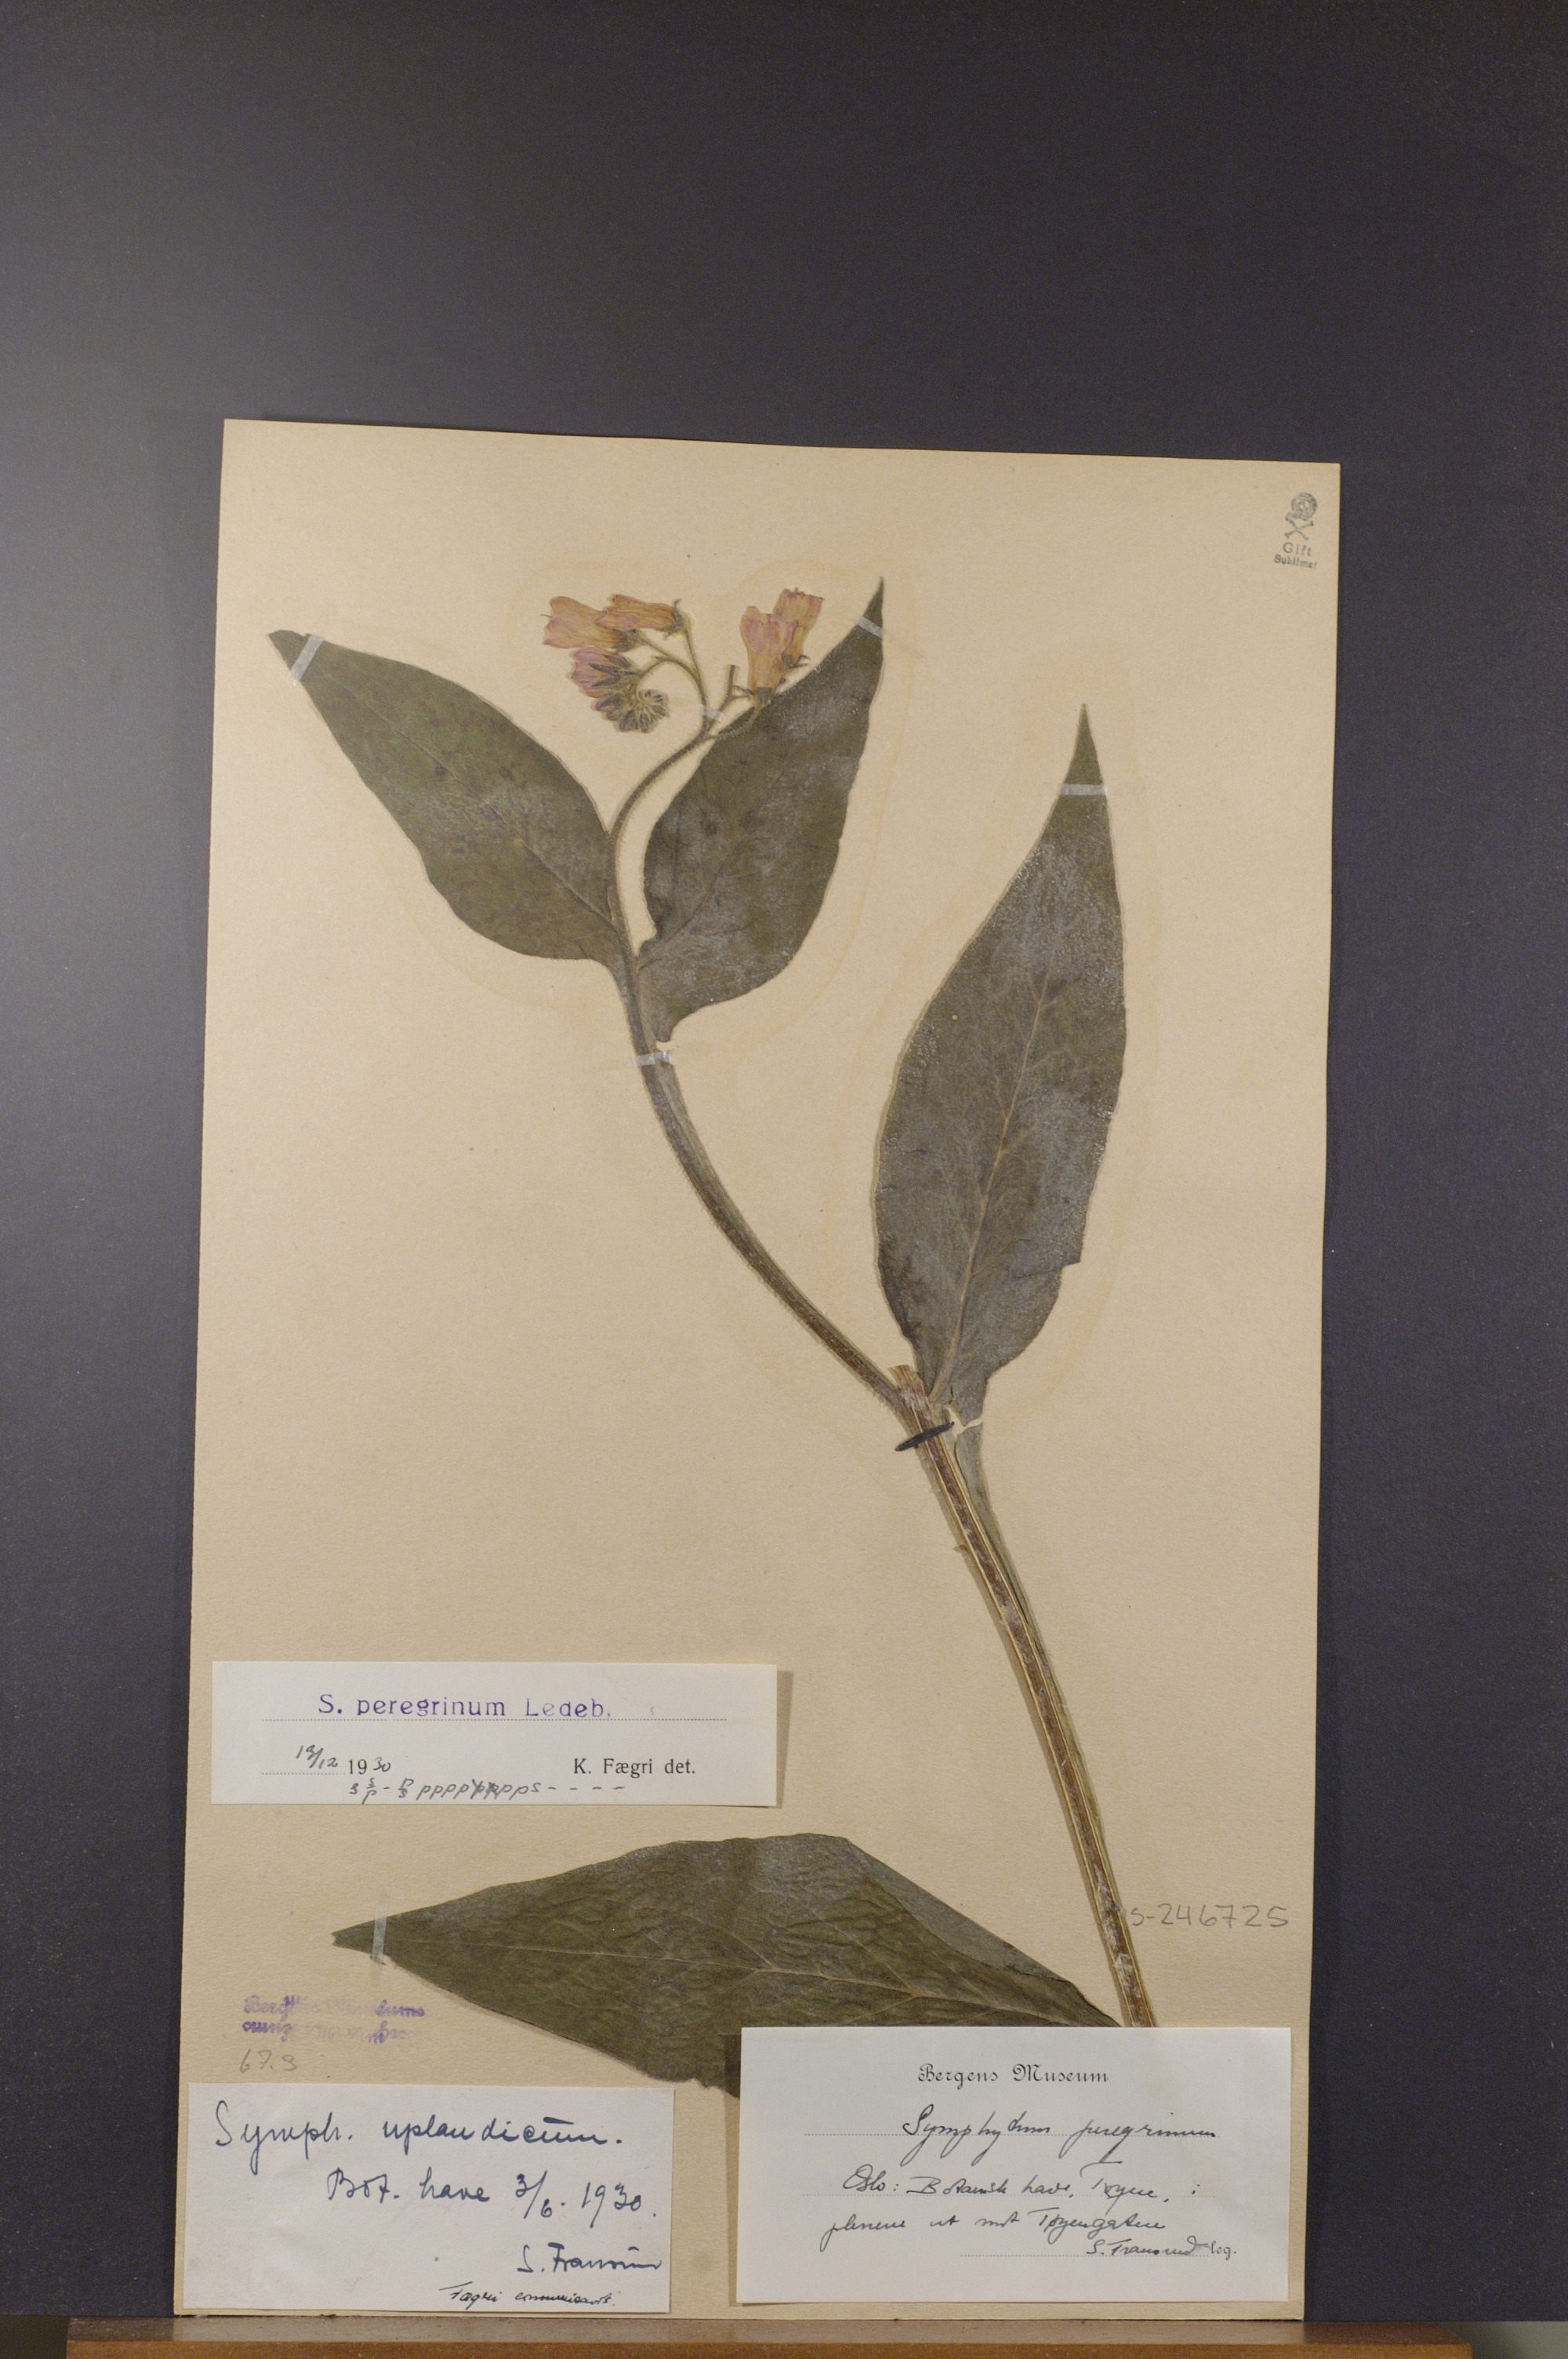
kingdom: Plantae
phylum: Tracheophyta
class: Magnoliopsida
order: Boraginales
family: Boraginaceae
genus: Symphytum
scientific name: Symphytum uplandicum
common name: Russian comfrey
